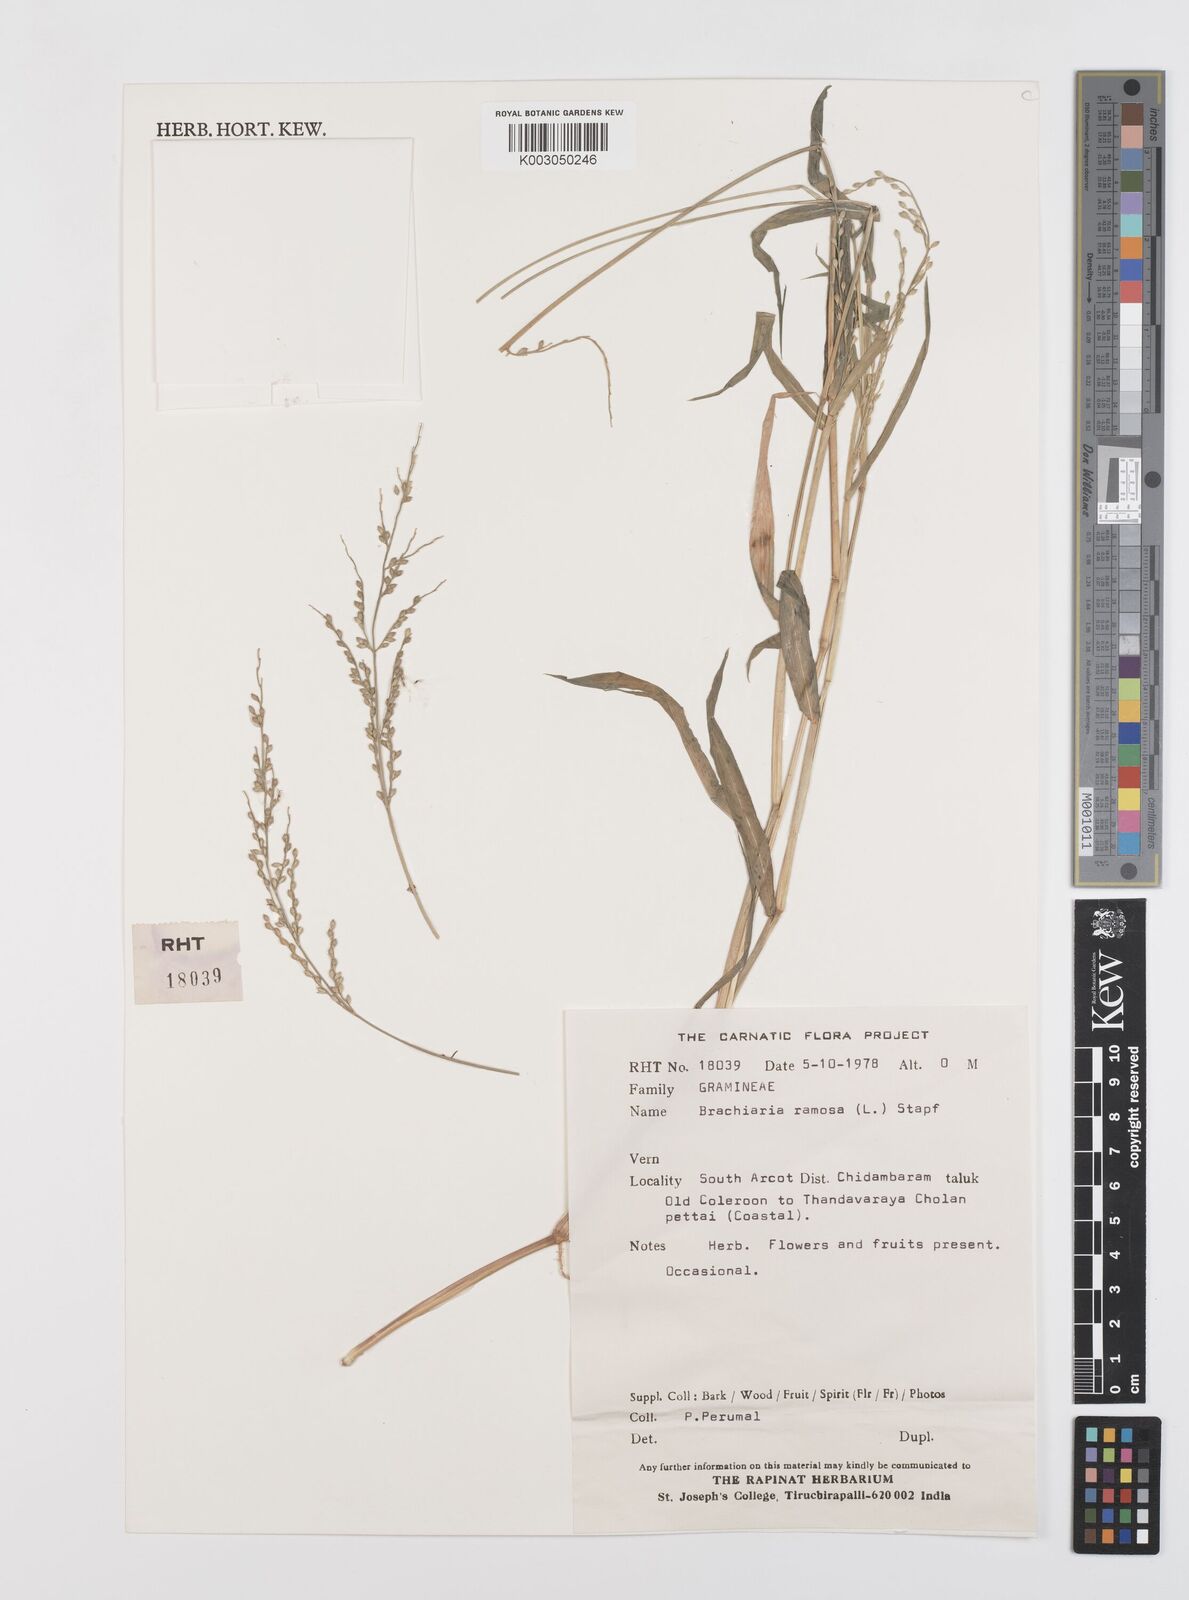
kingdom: Plantae
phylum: Tracheophyta
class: Liliopsida
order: Poales
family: Poaceae
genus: Urochloa
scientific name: Urochloa ramosa
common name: Browntop millet
